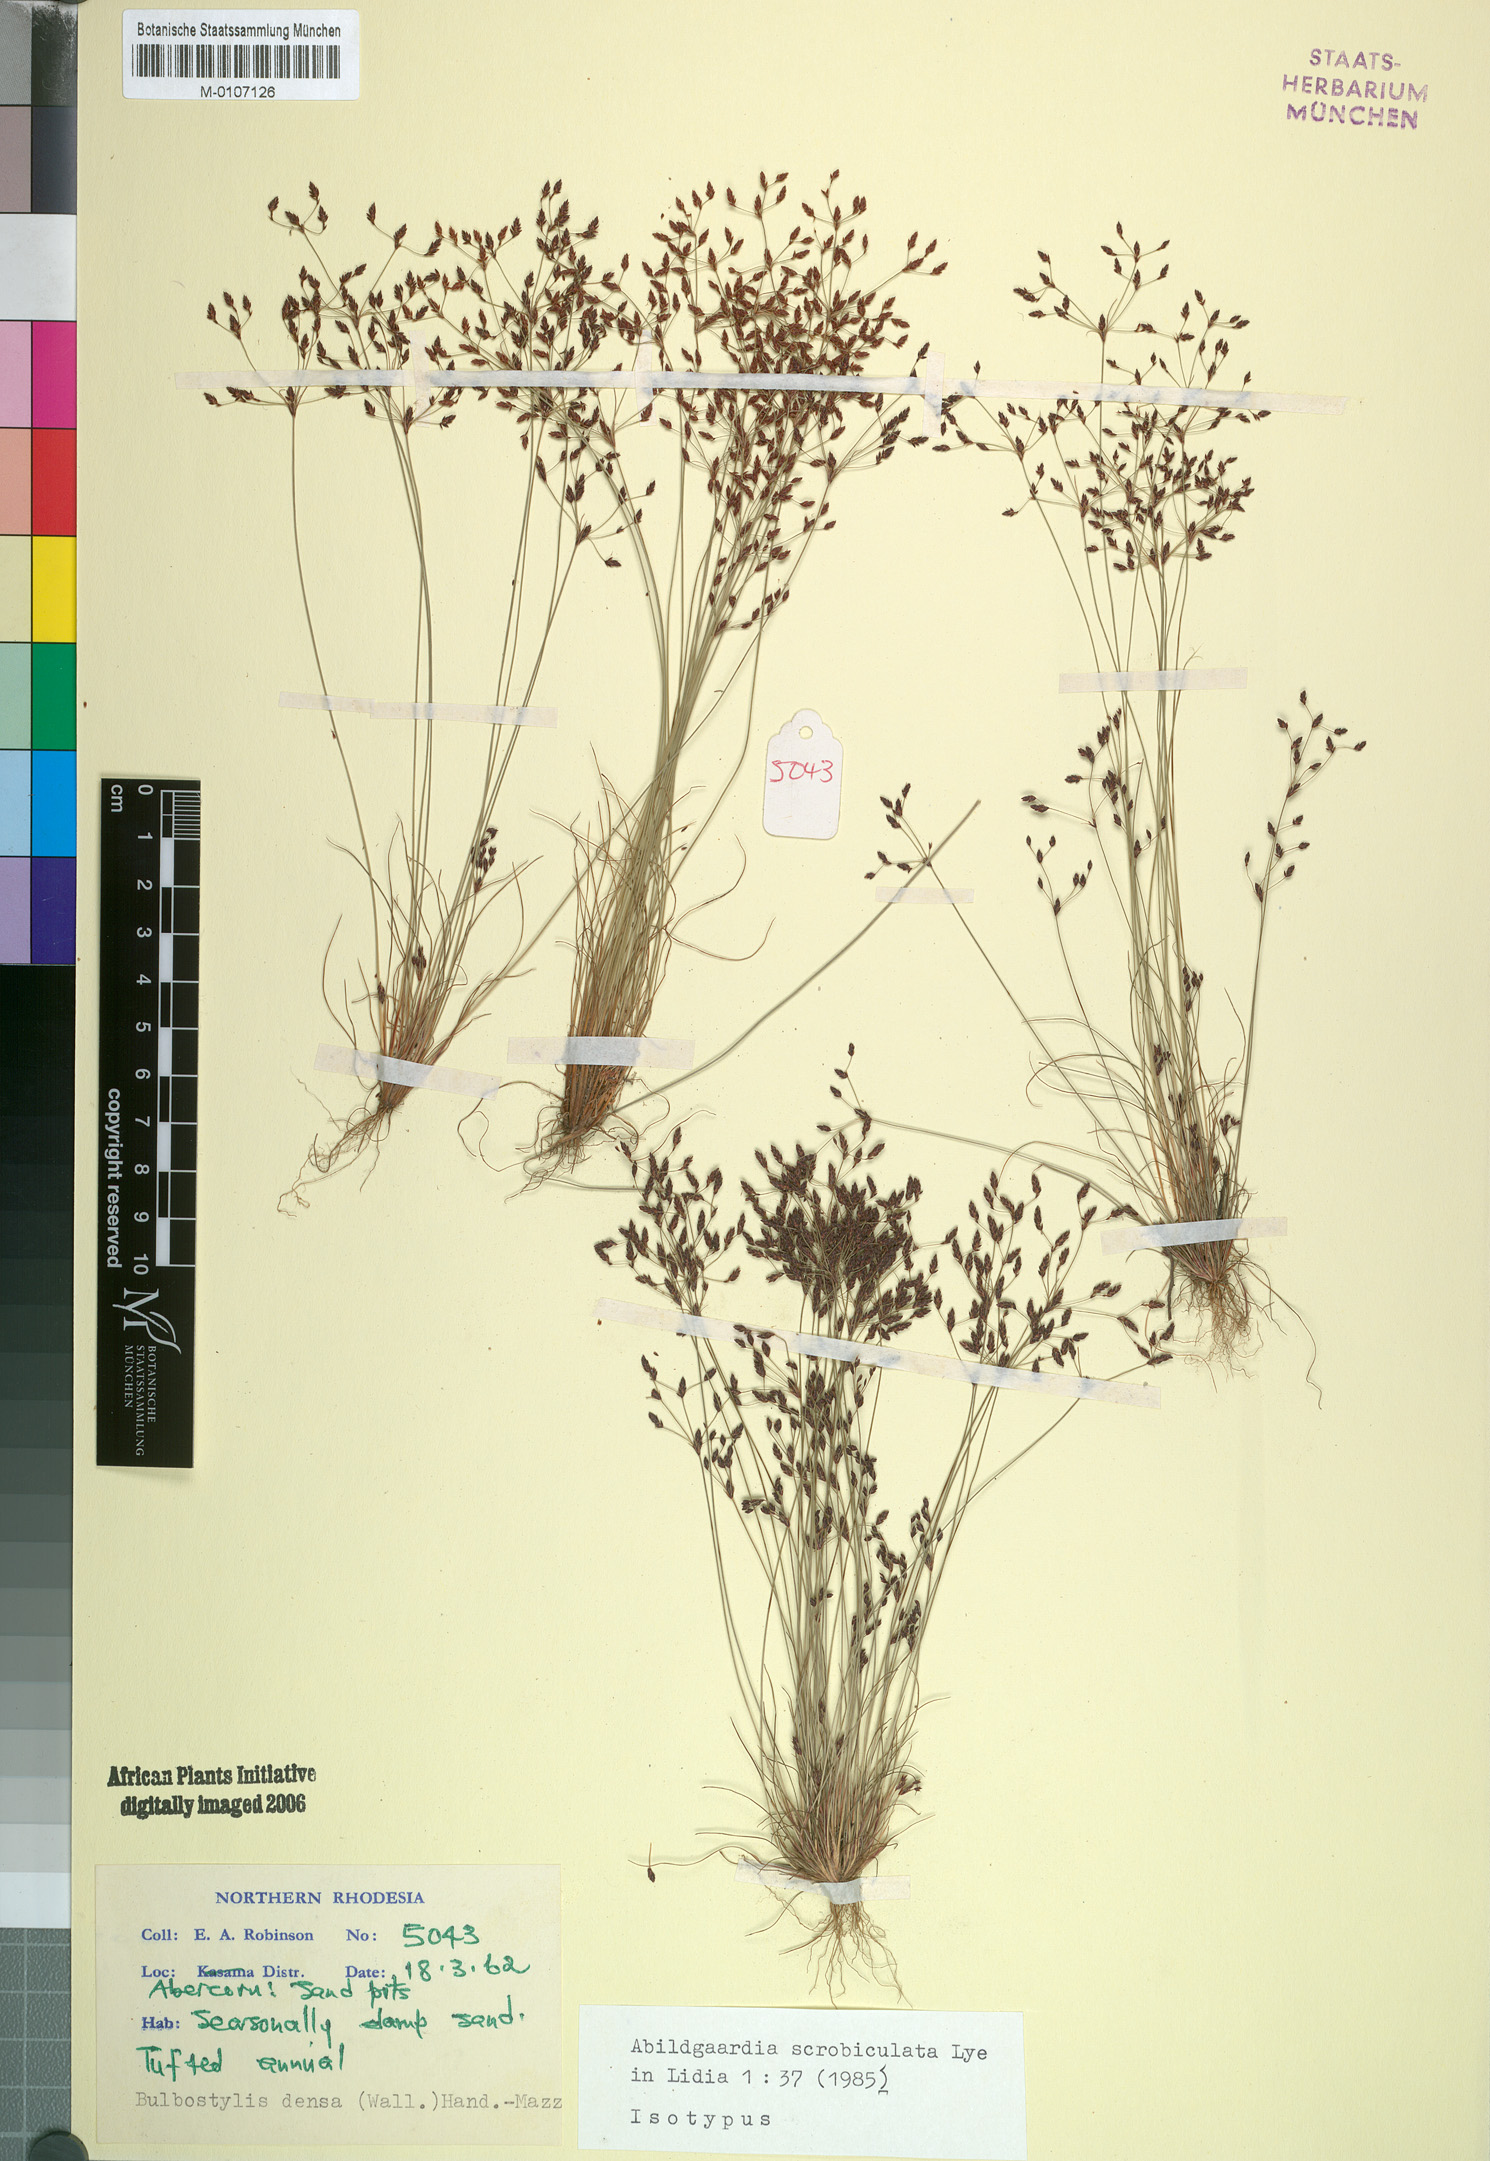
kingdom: Plantae
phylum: Tracheophyta
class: Liliopsida
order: Poales
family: Cyperaceae
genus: Bulbostylis
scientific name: Bulbostylis scrobiculata
